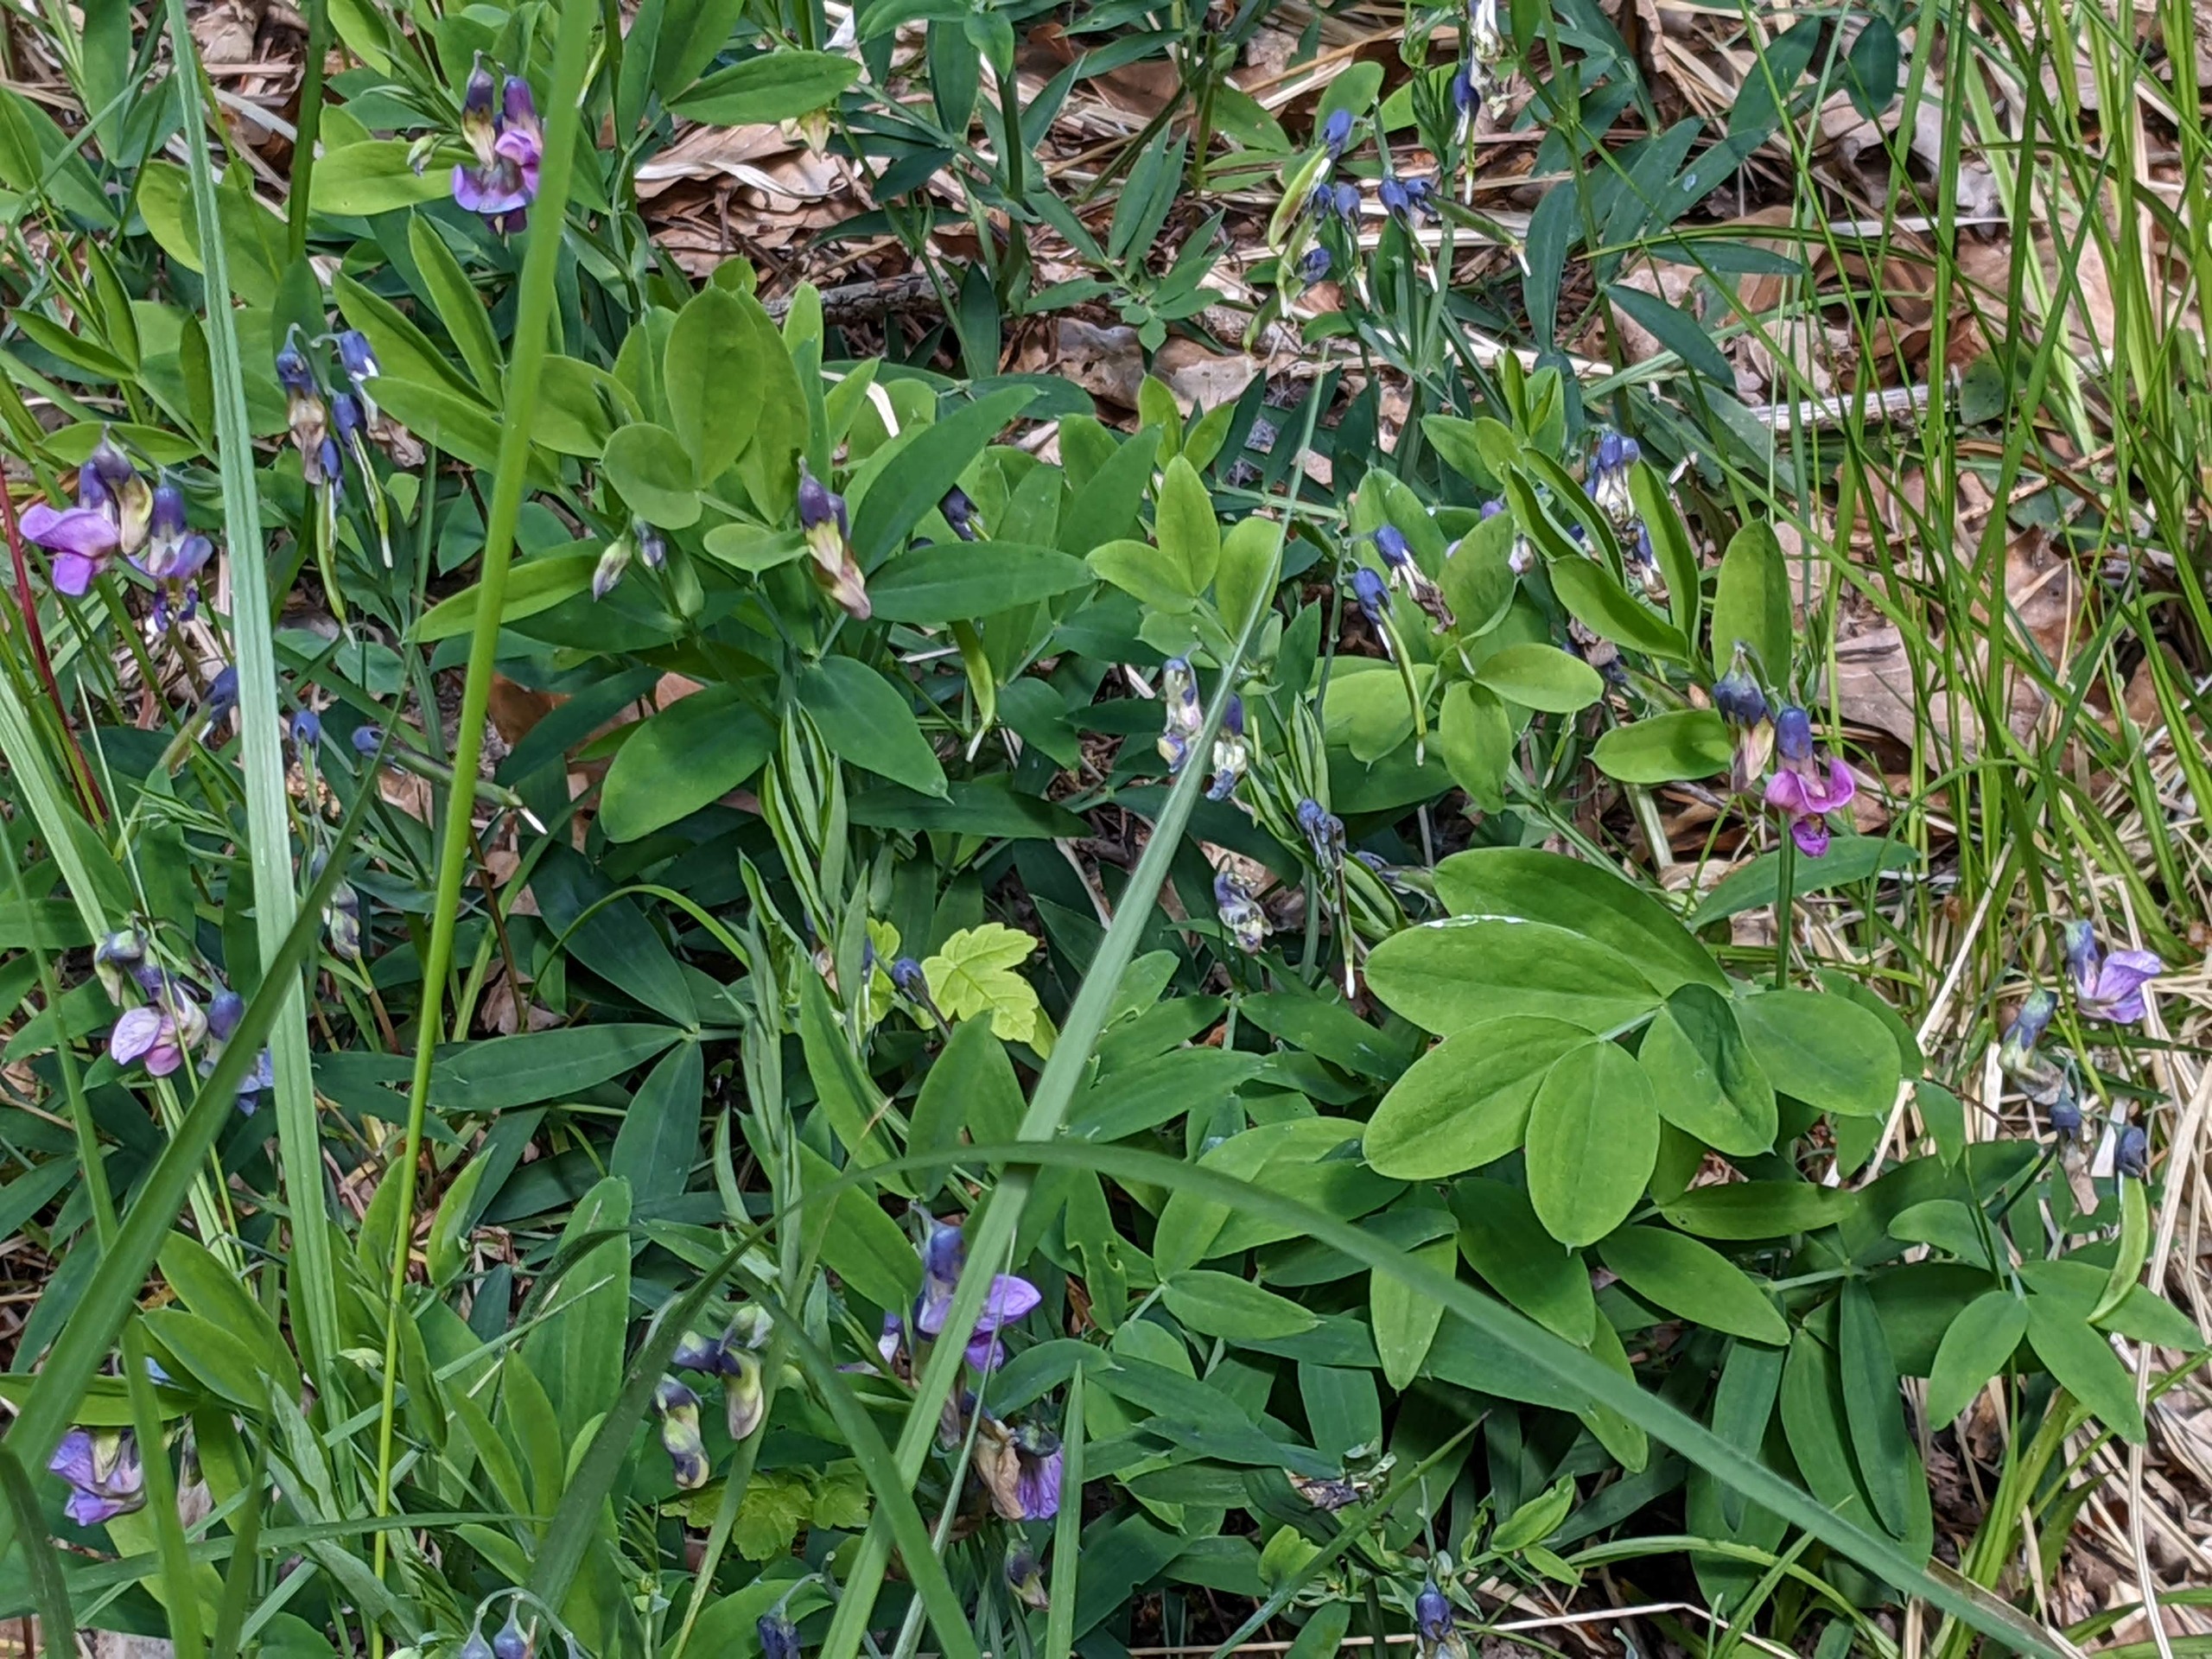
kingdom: Plantae
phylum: Tracheophyta
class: Magnoliopsida
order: Fabales
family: Fabaceae
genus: Lathyrus
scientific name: Lathyrus linifolius
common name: Krat-fladbælg
